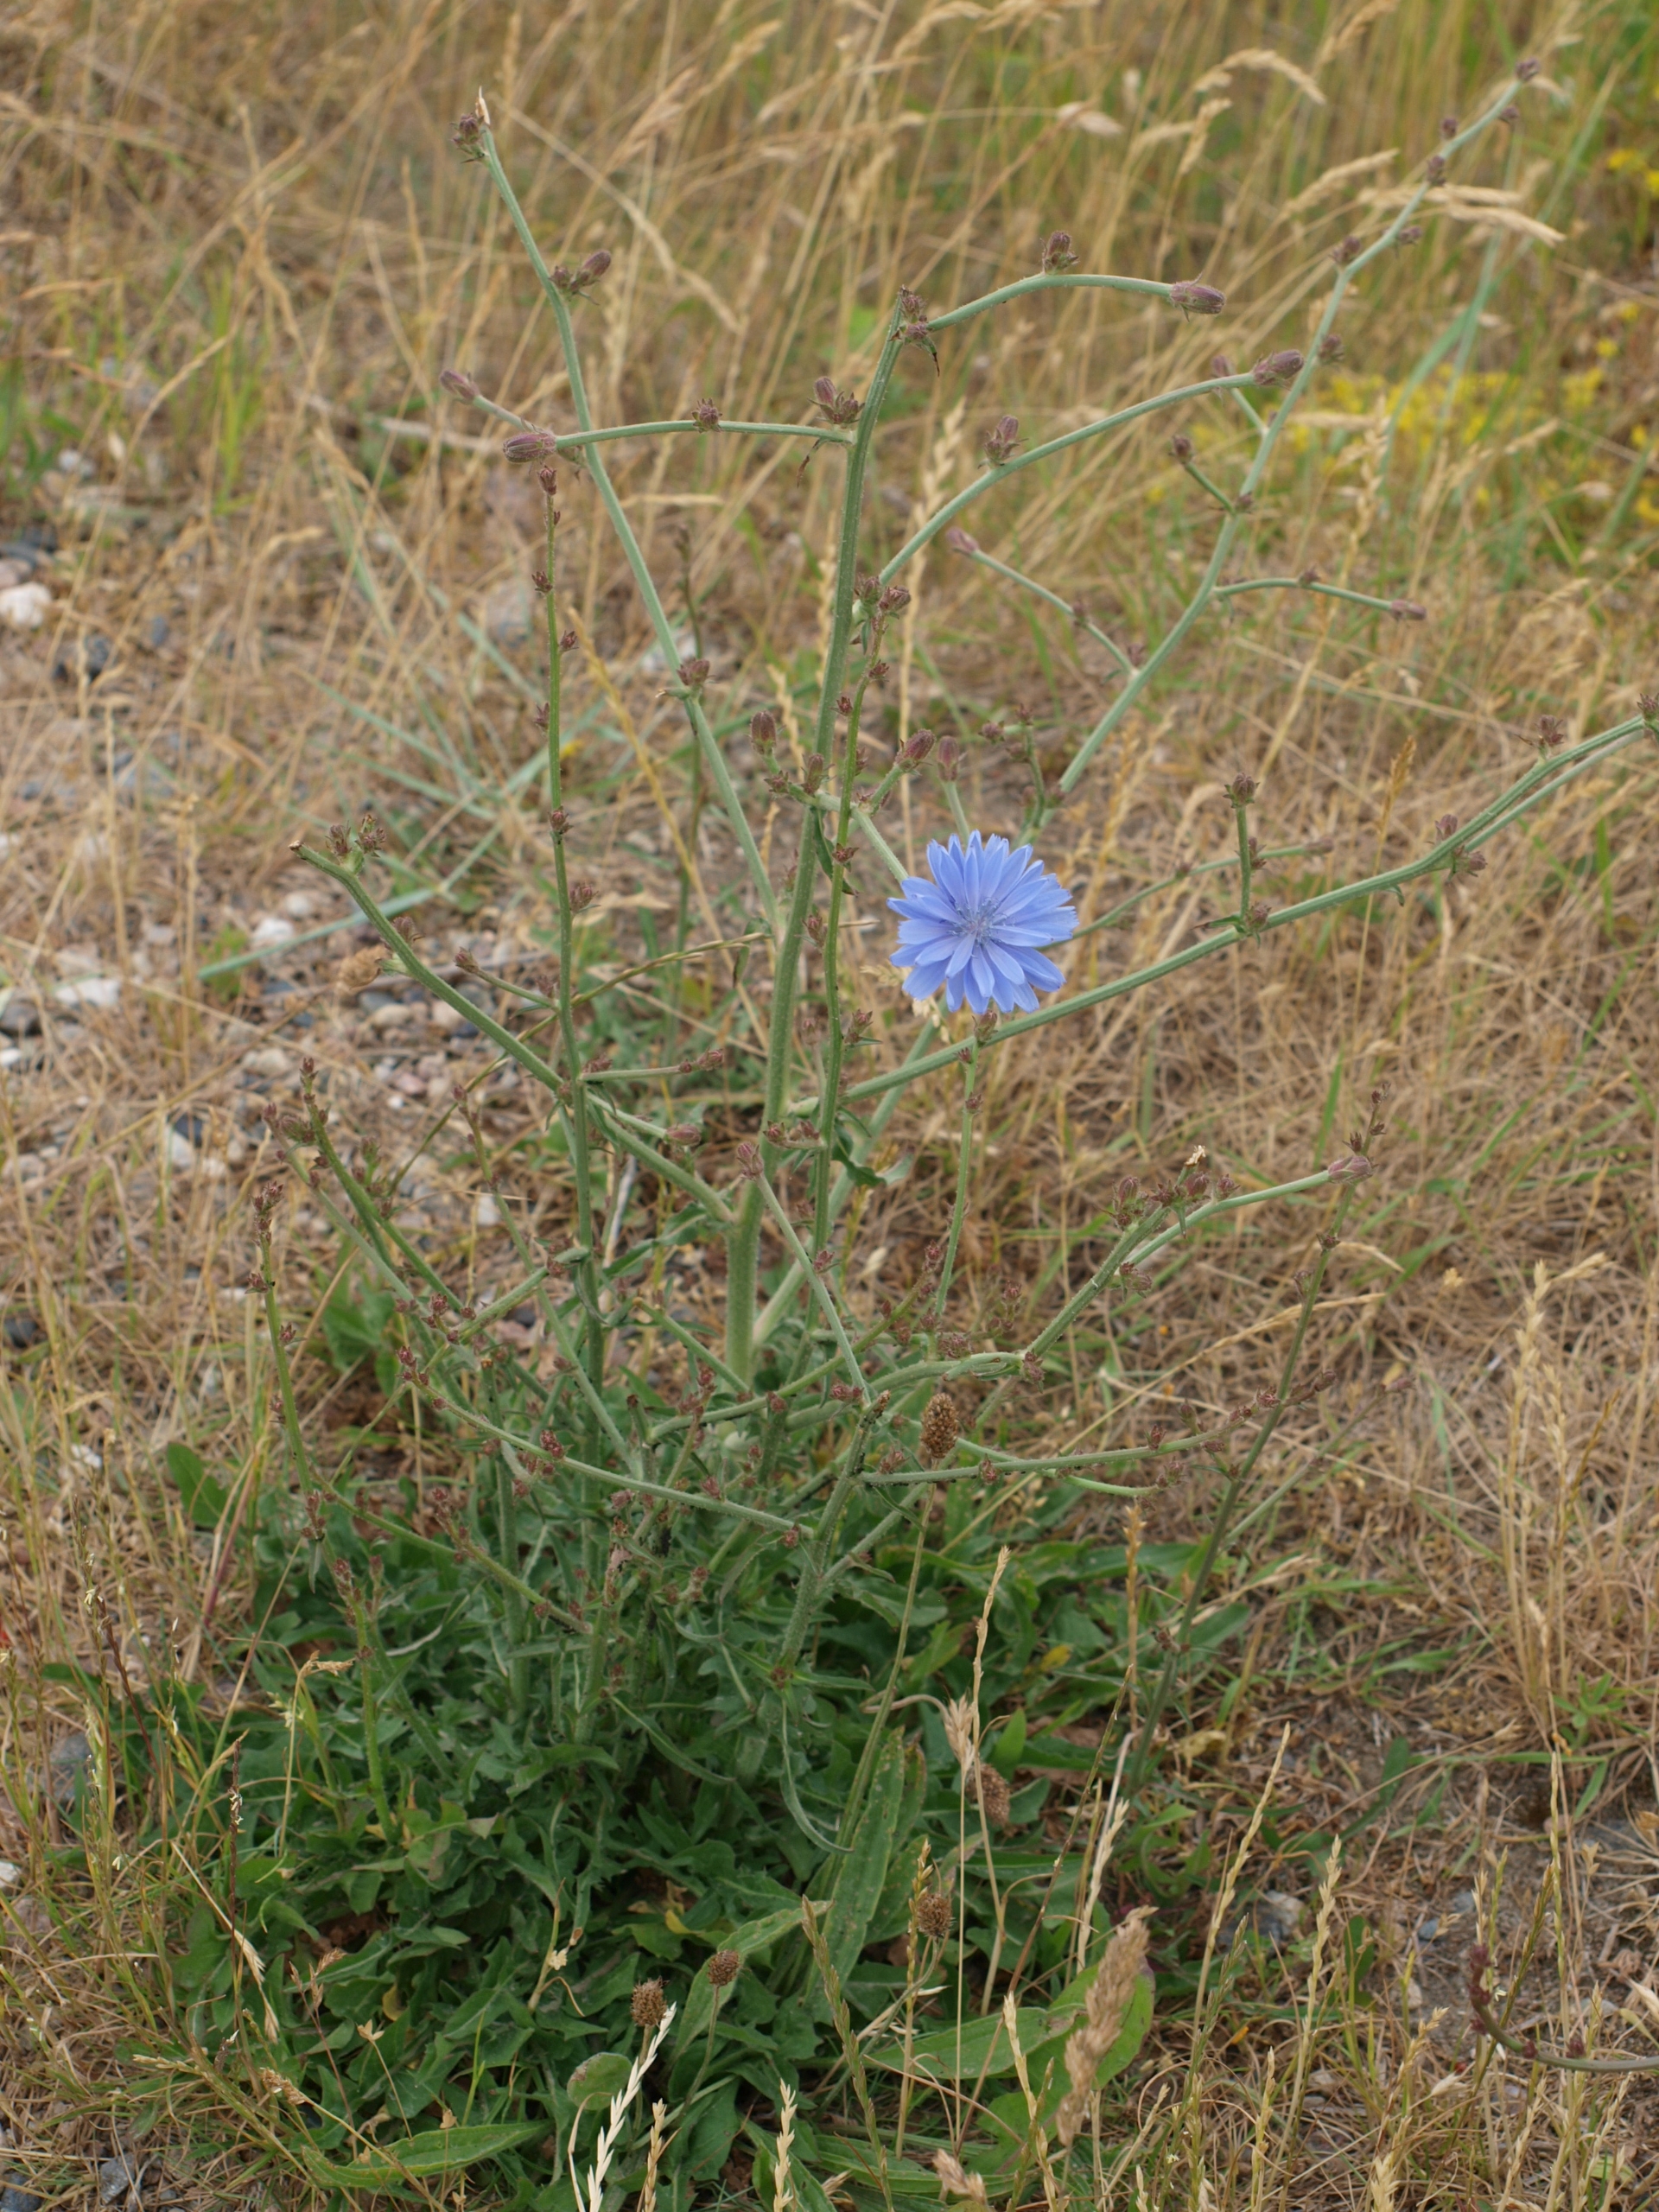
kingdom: Plantae
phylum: Tracheophyta
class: Magnoliopsida
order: Asterales
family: Asteraceae
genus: Cichorium
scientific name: Cichorium intybus
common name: Cikorie
